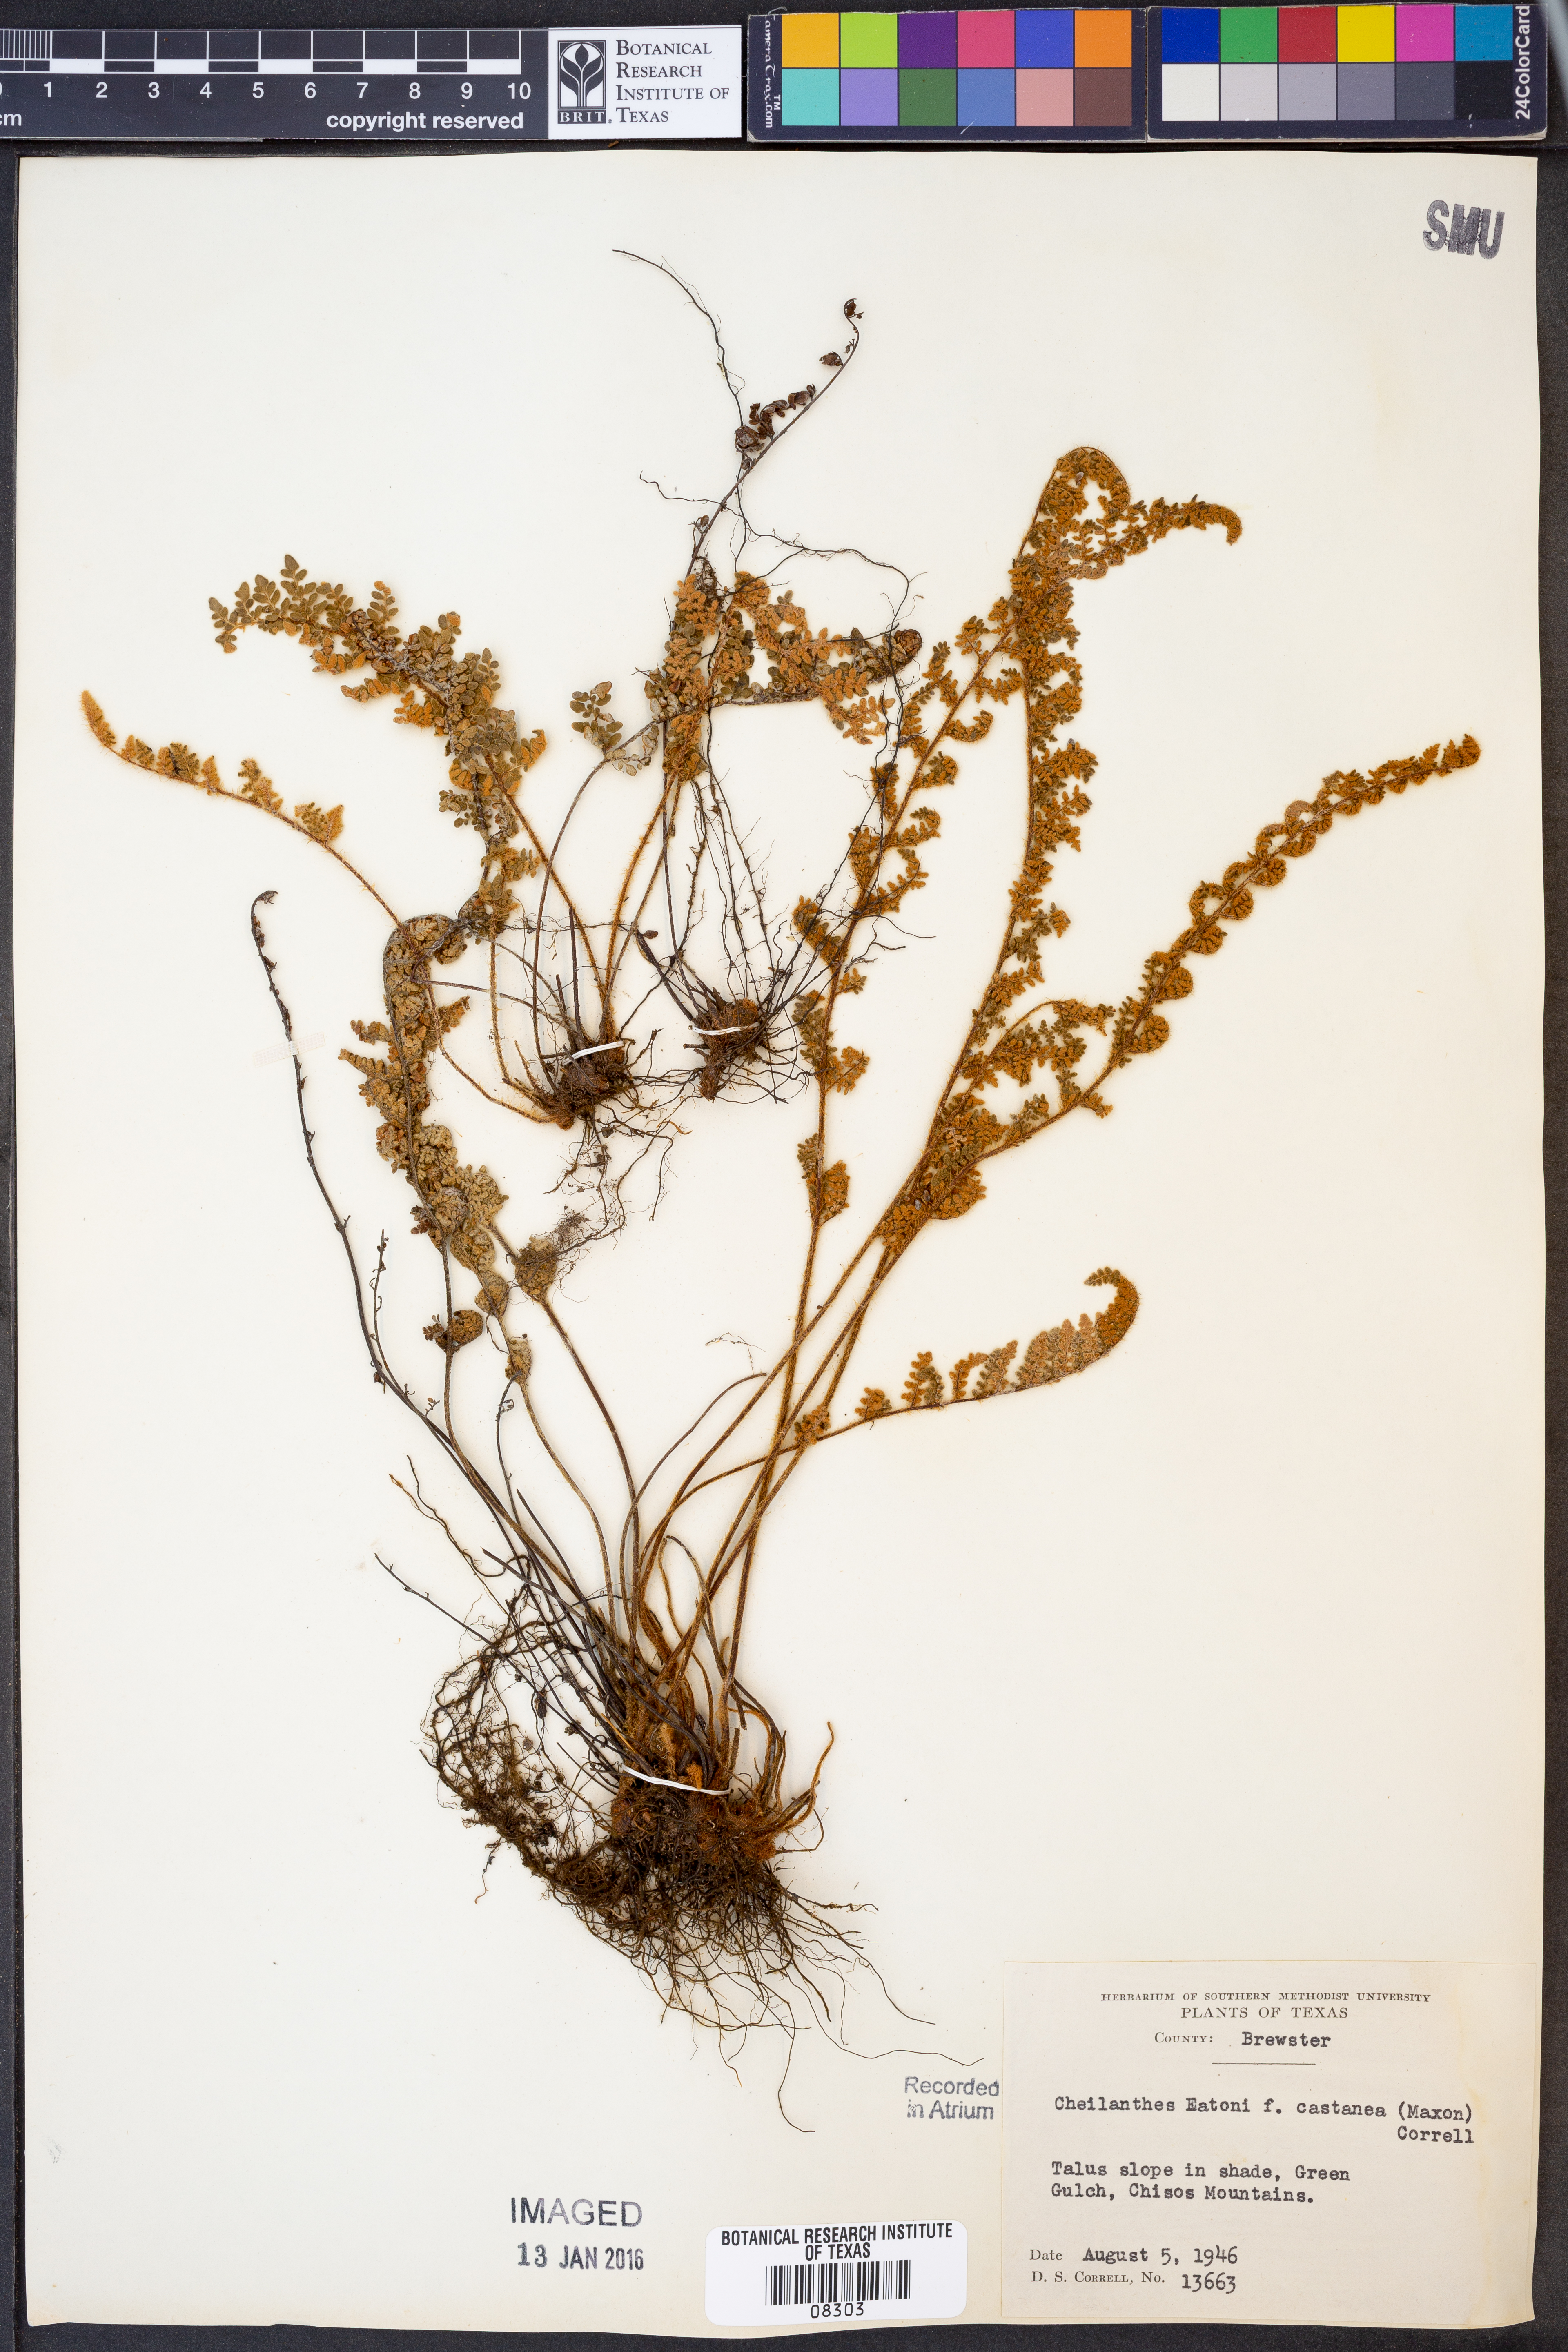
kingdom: Plantae
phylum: Tracheophyta
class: Polypodiopsida
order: Polypodiales
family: Pteridaceae
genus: Myriopteris
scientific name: Myriopteris rufa
